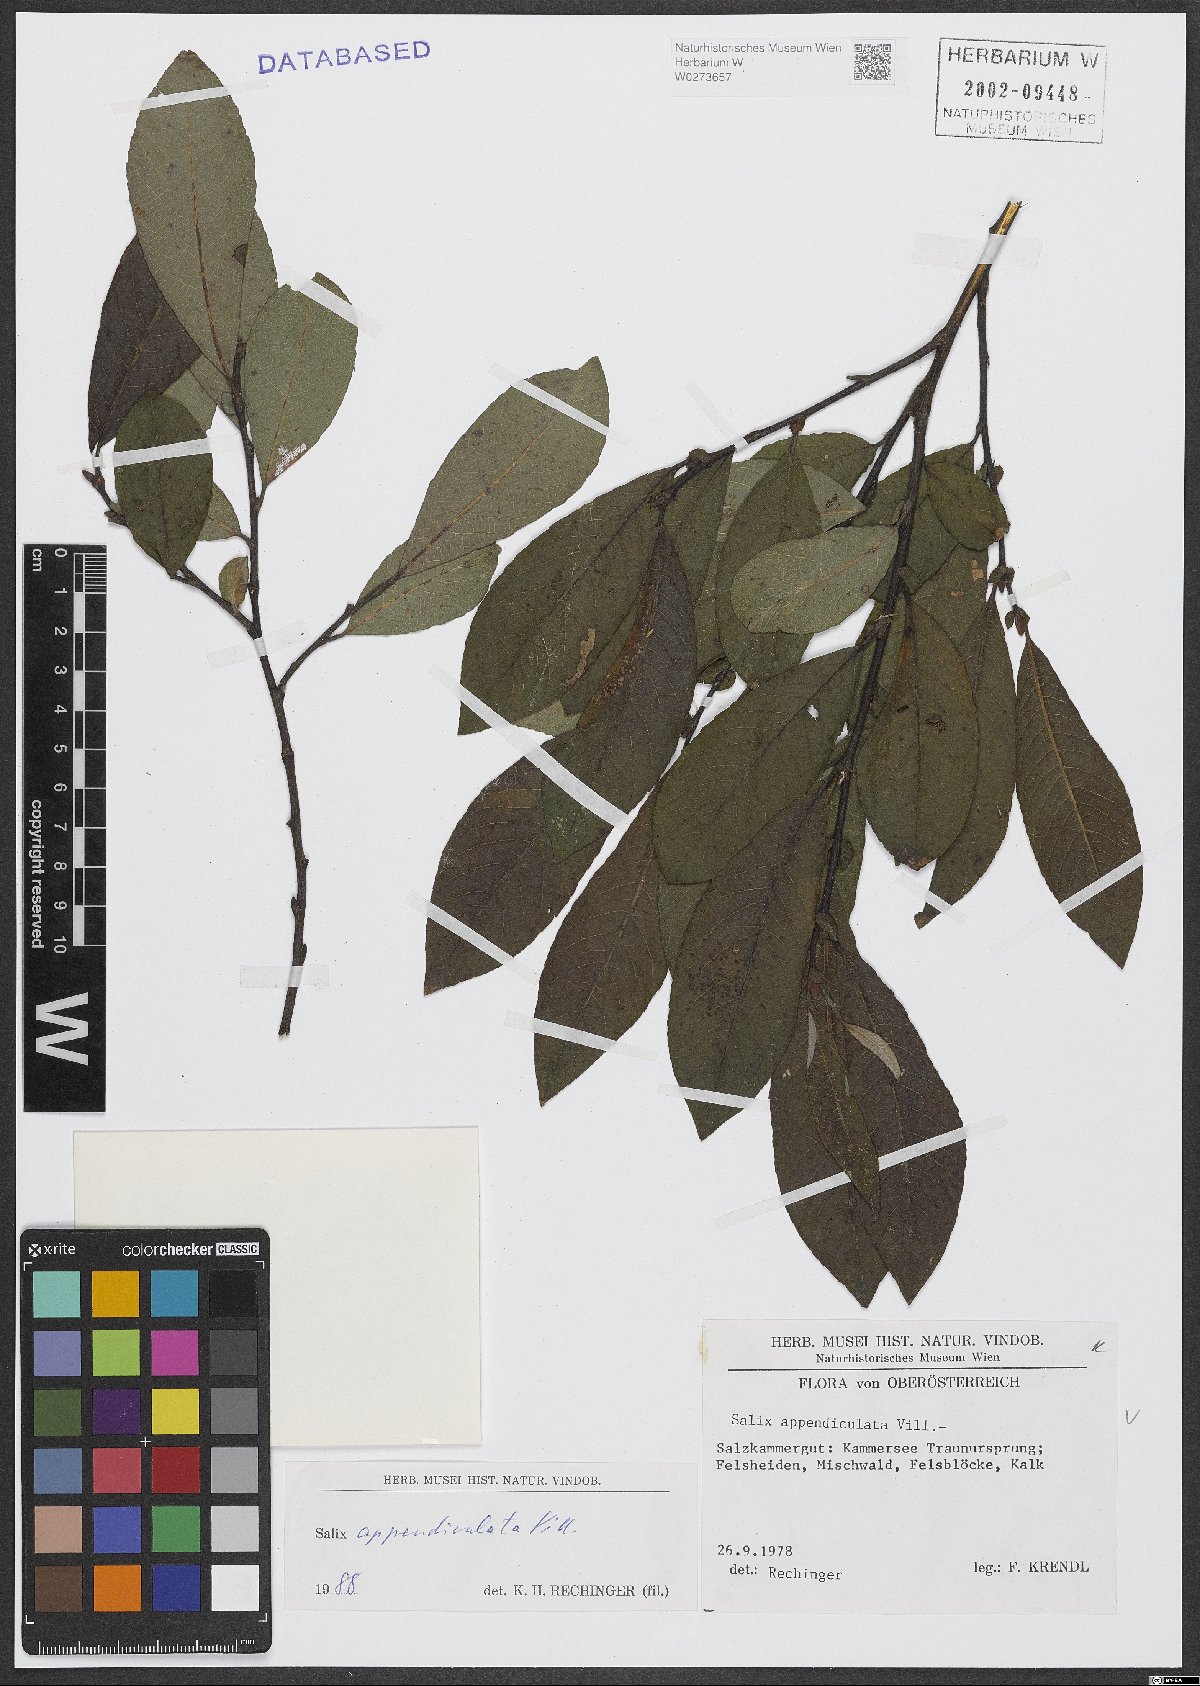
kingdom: Plantae
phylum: Tracheophyta
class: Magnoliopsida
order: Malpighiales
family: Salicaceae
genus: Salix
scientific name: Salix appendiculata
